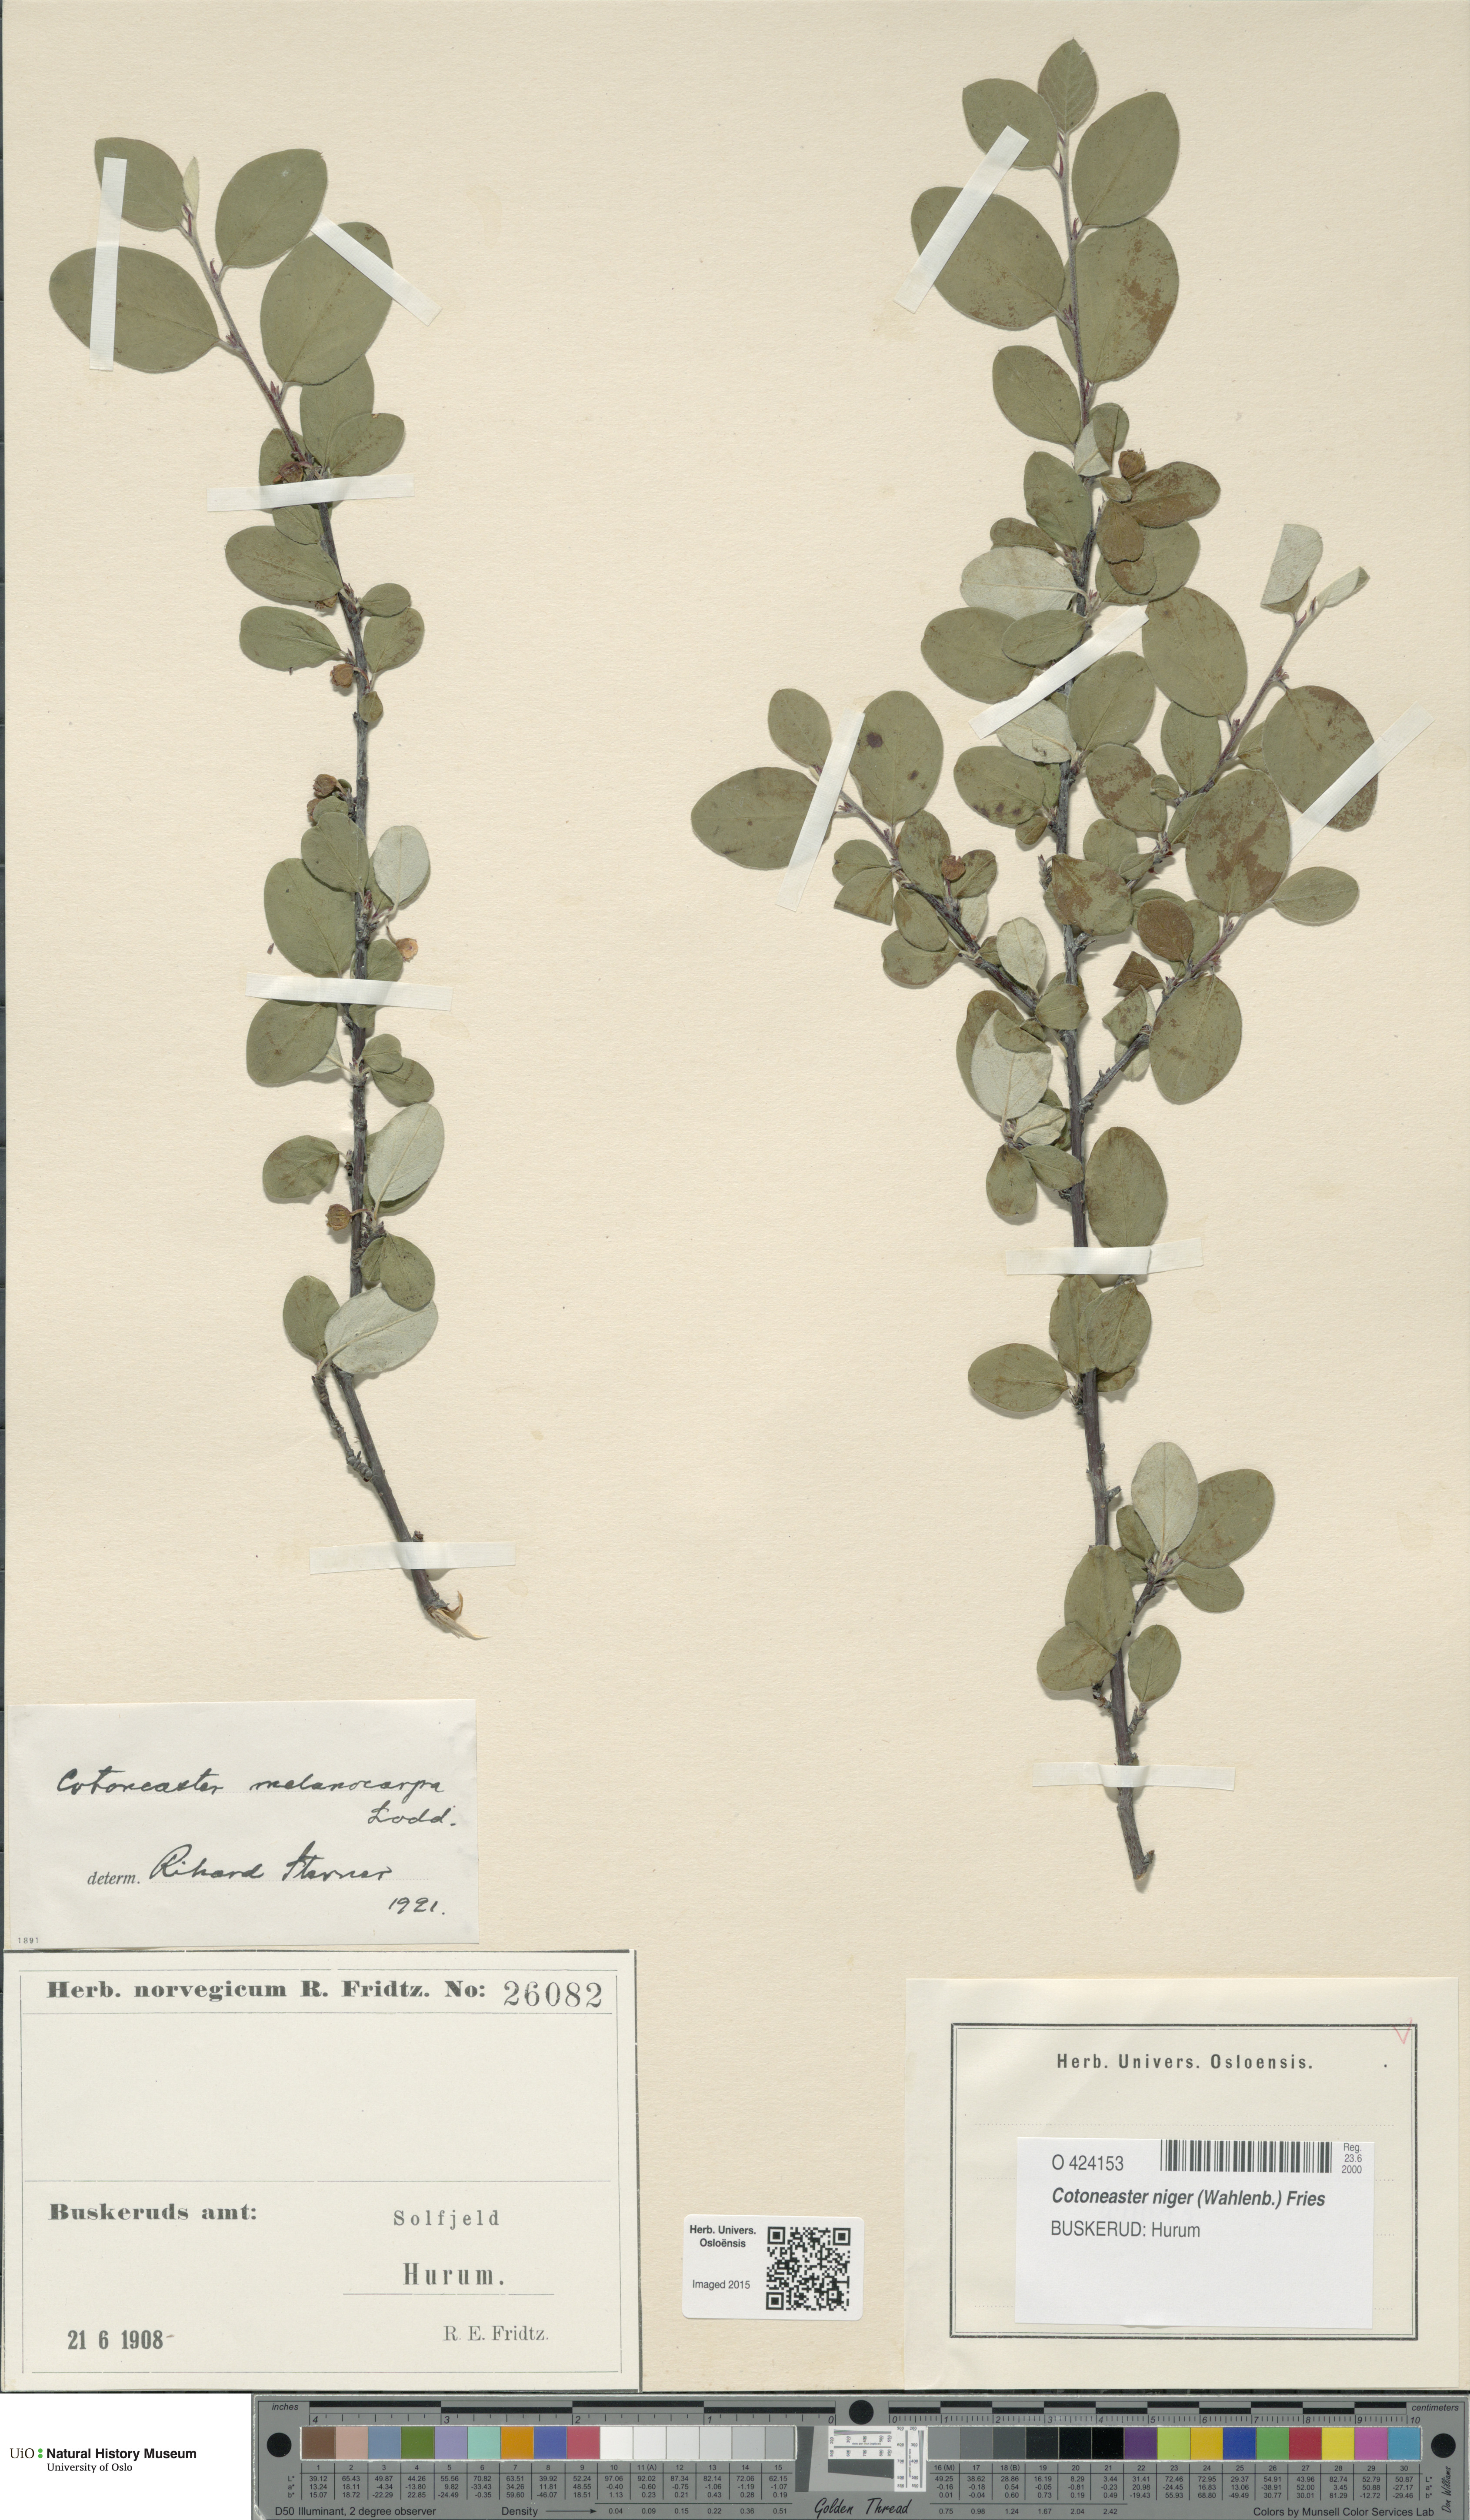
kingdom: Plantae
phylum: Tracheophyta
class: Magnoliopsida
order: Rosales
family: Rosaceae
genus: Cotoneaster
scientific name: Cotoneaster niger
